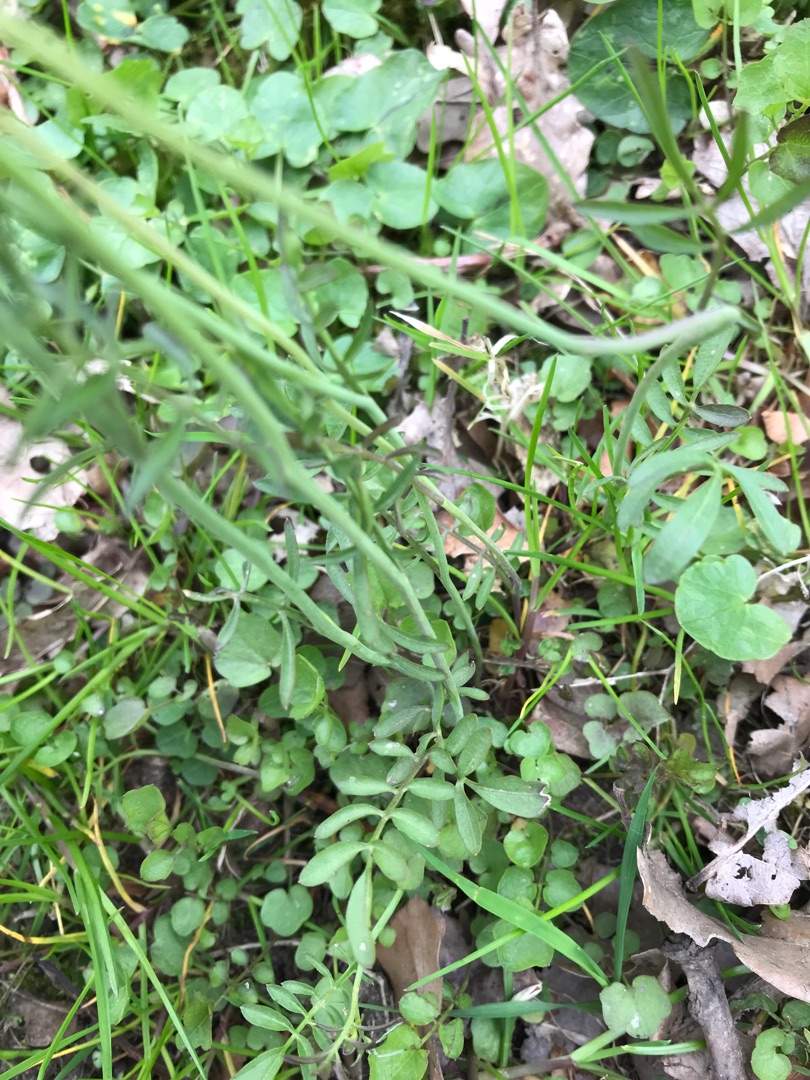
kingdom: Plantae
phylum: Tracheophyta
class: Magnoliopsida
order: Brassicales
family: Brassicaceae
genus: Cardamine
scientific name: Cardamine pratensis
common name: Engkarse
